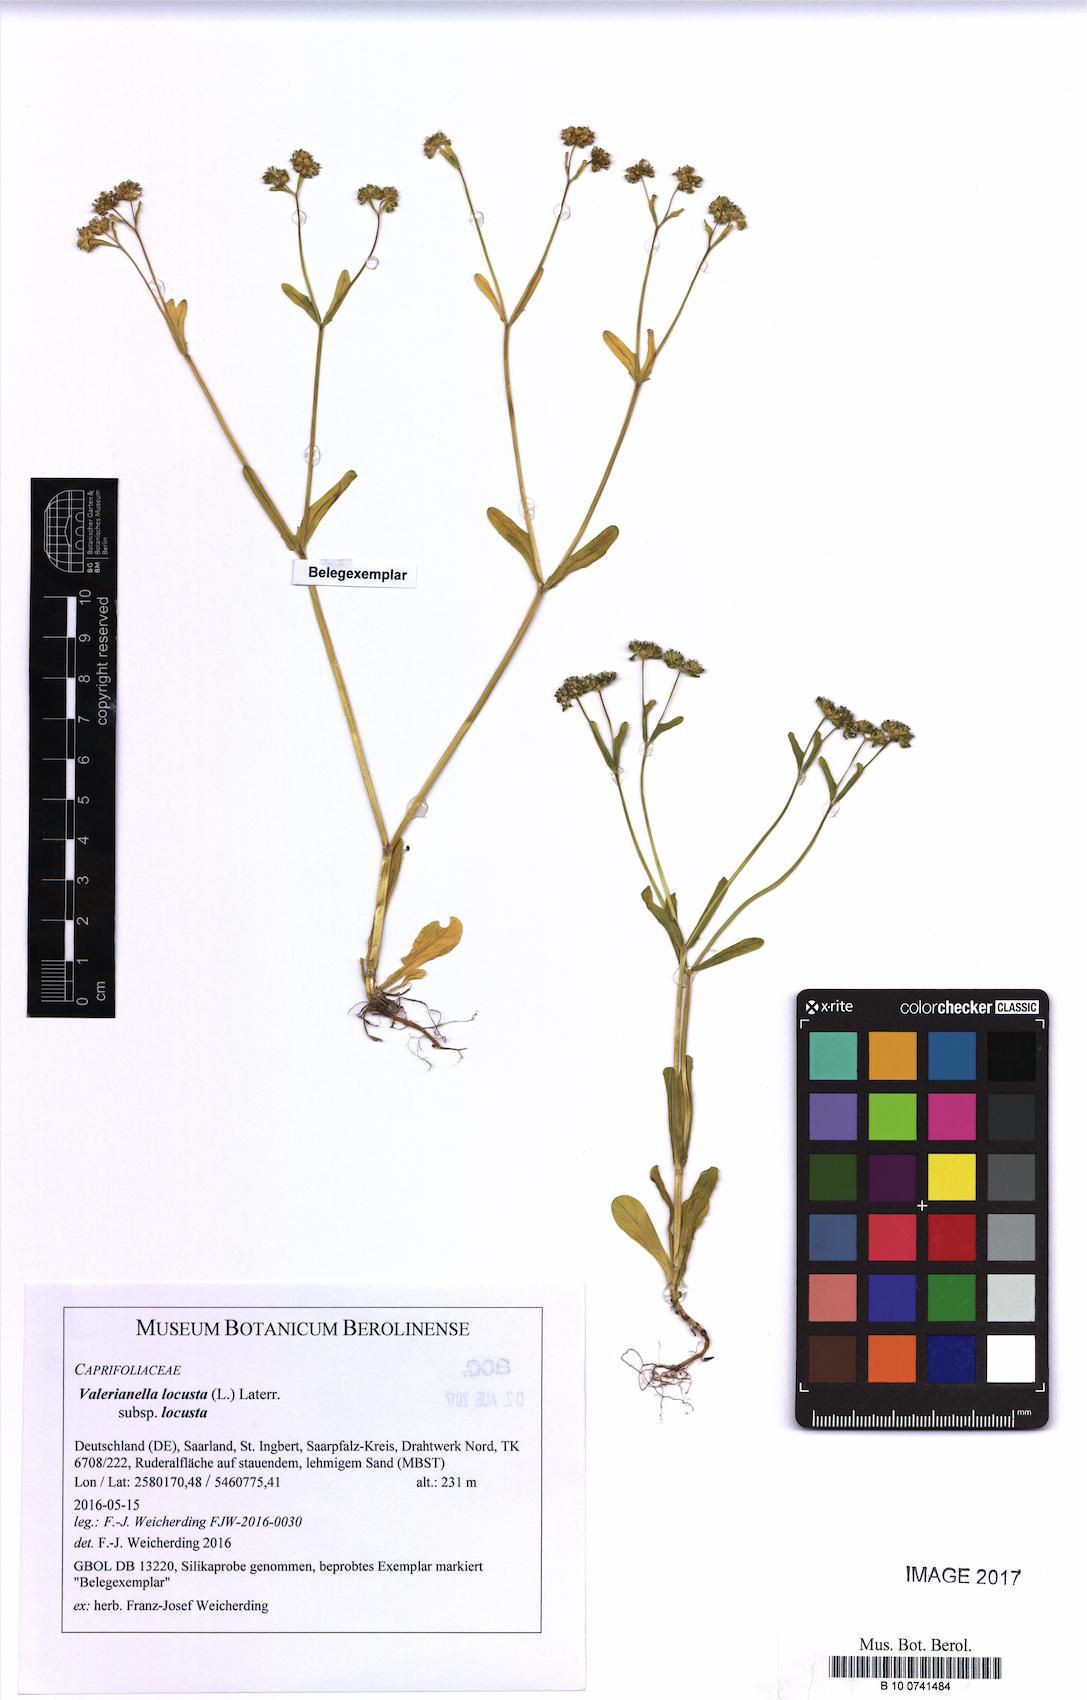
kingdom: Plantae
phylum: Tracheophyta
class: Magnoliopsida
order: Dipsacales
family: Caprifoliaceae
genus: Valerianella
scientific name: Valerianella locusta
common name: Common cornsalad
